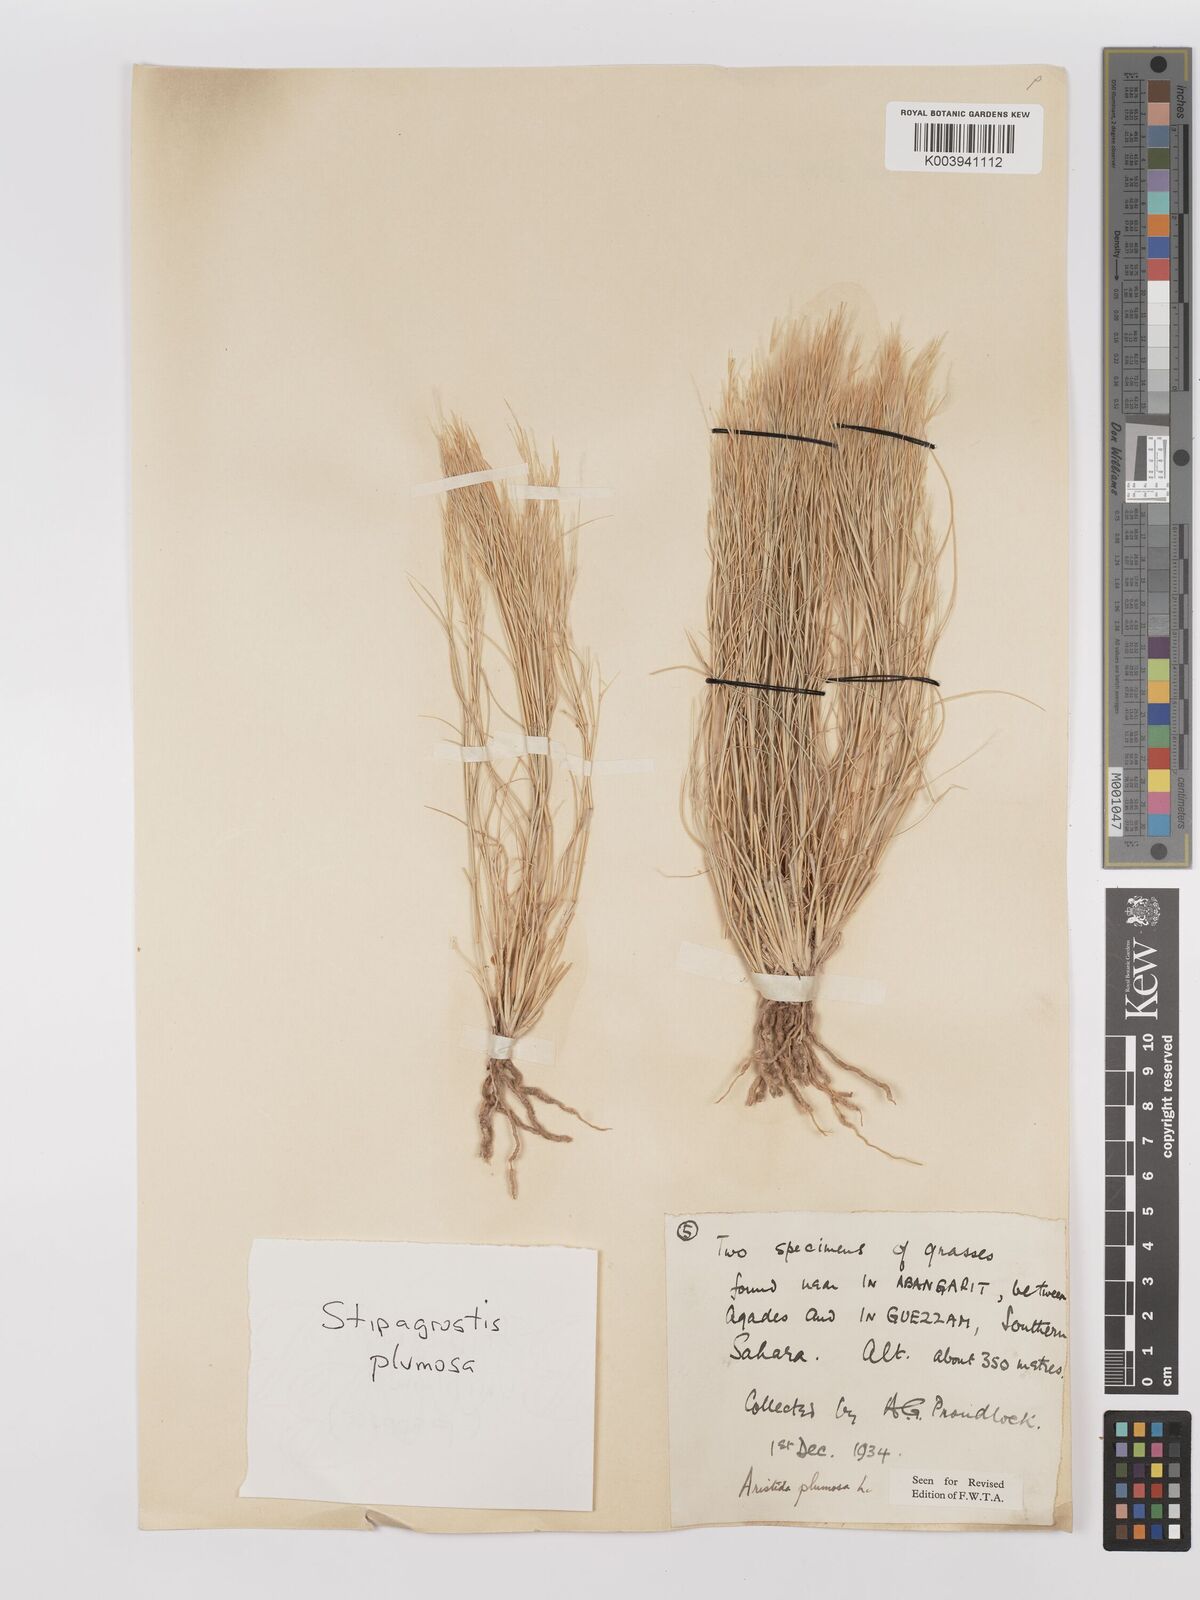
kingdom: Plantae
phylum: Tracheophyta
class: Liliopsida
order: Poales
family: Poaceae
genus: Stipagrostis
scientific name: Stipagrostis plumosa
